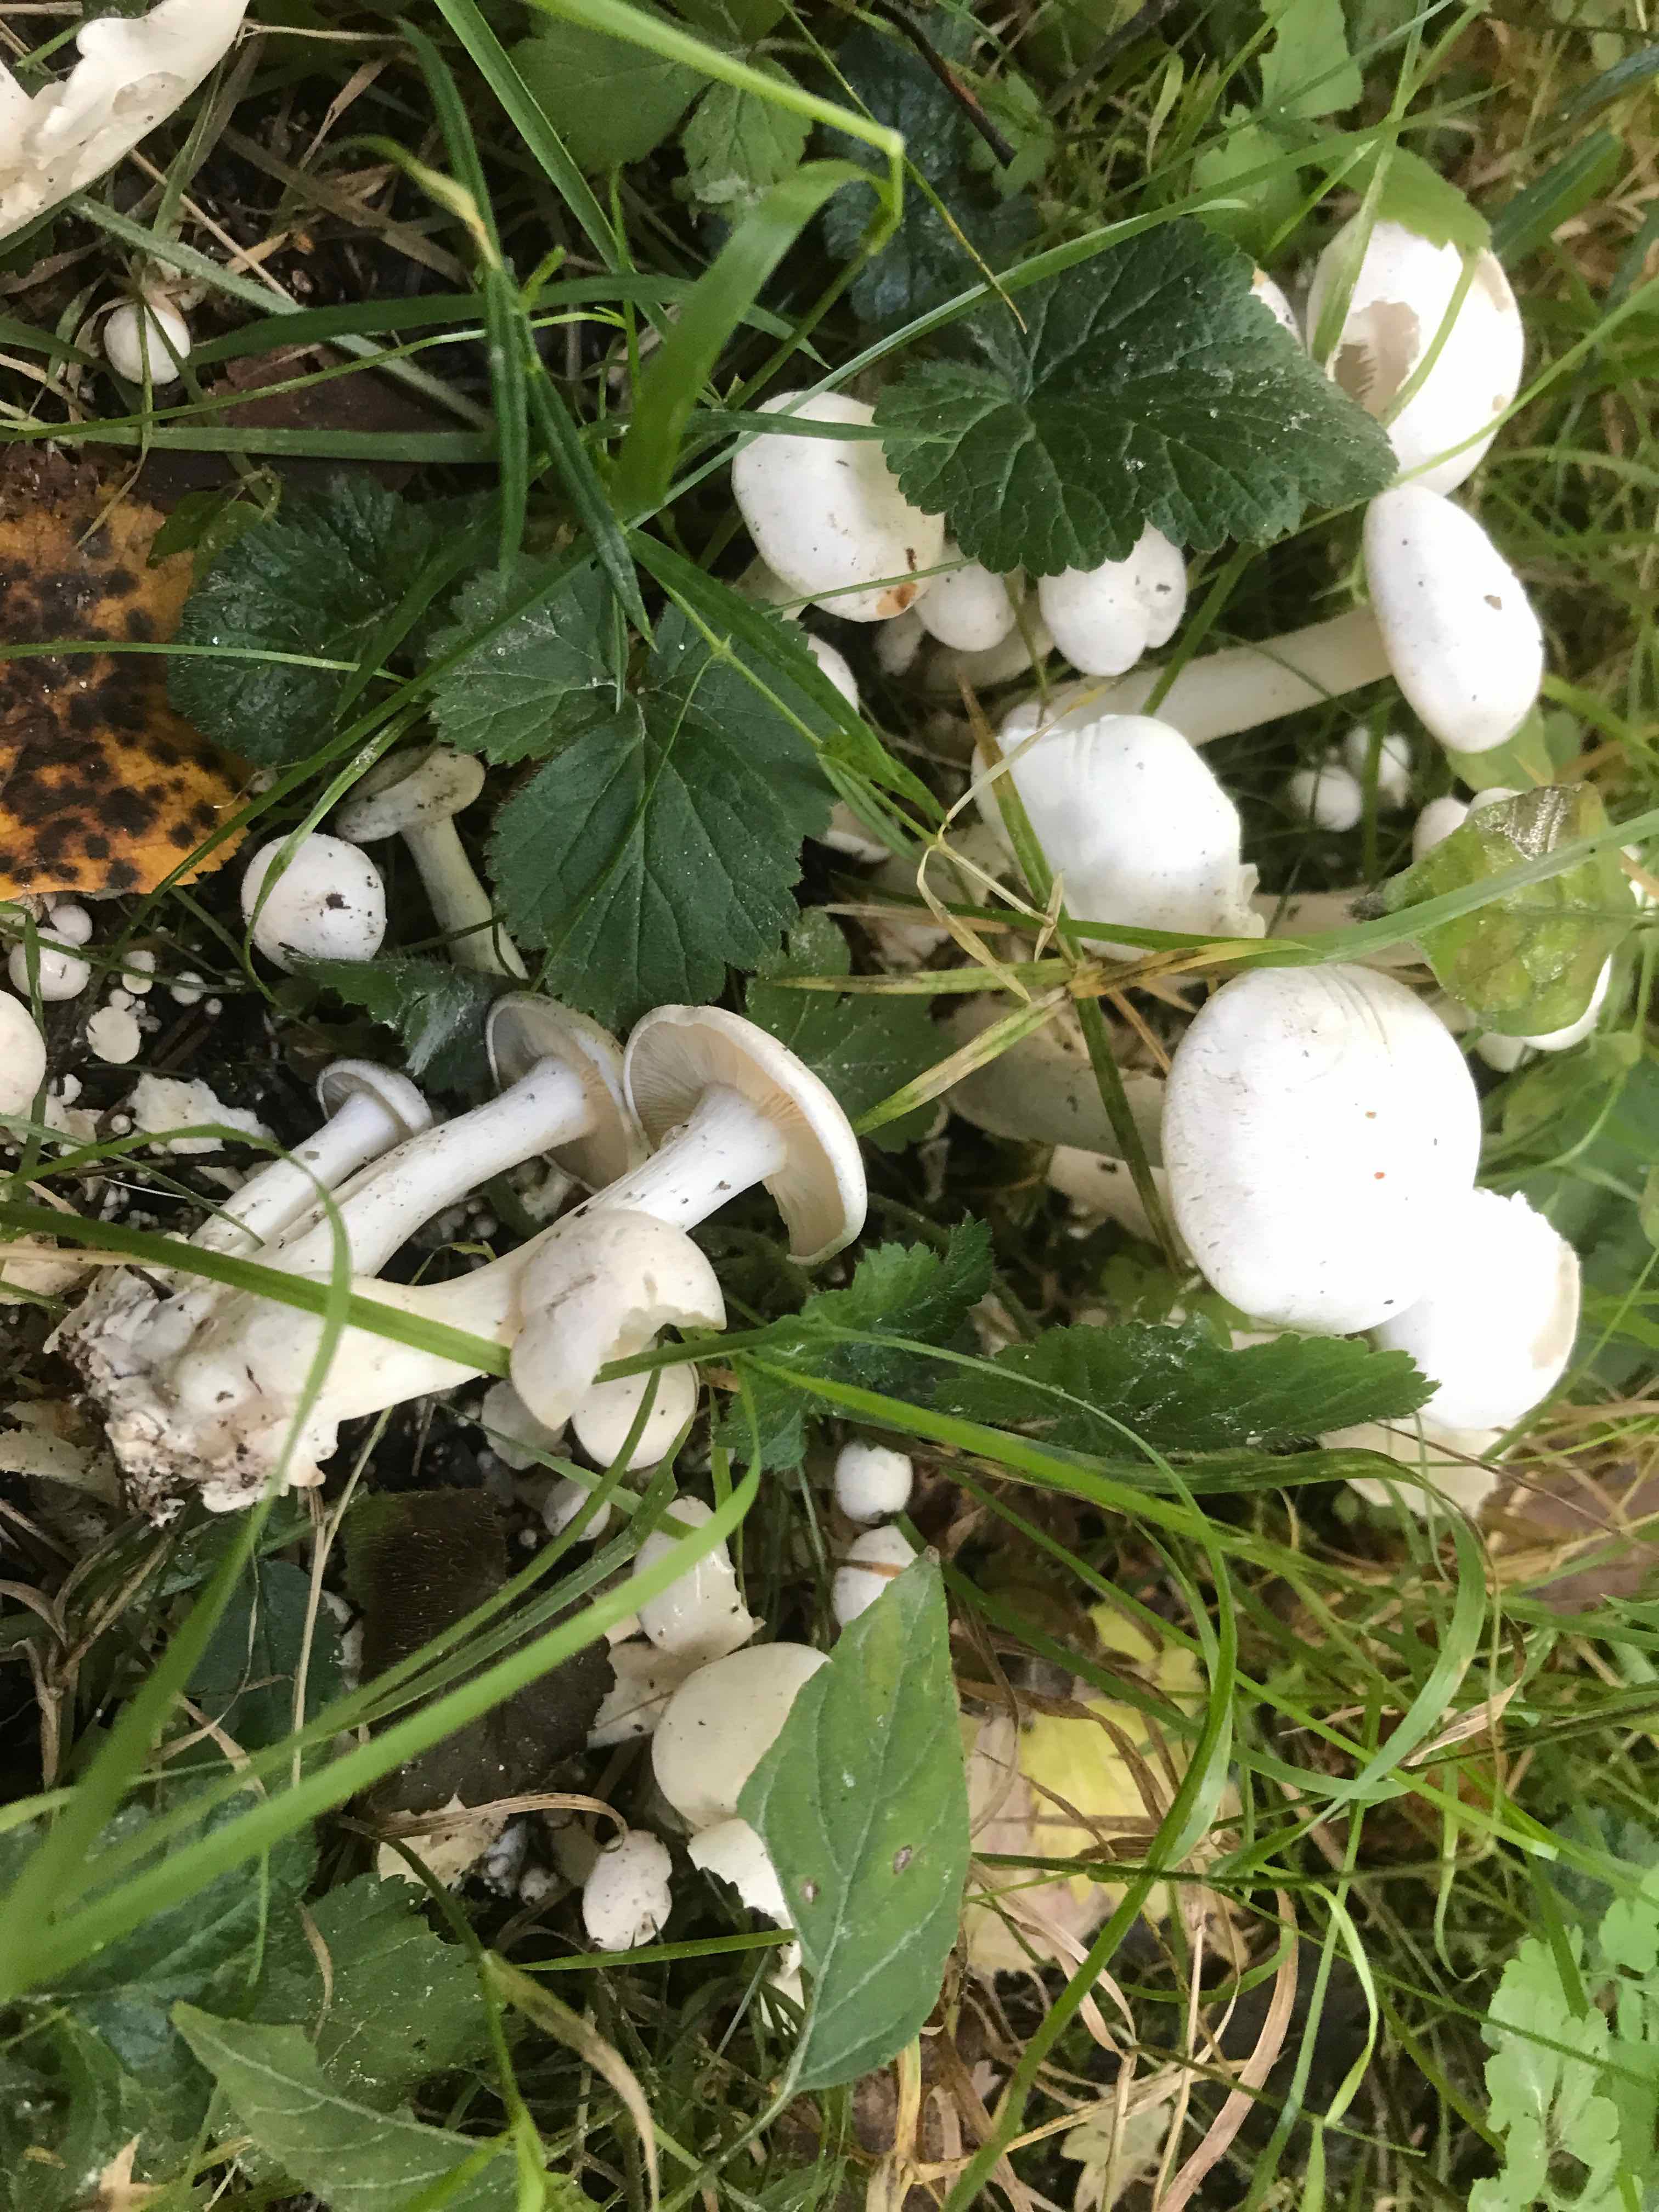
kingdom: Fungi
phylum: Basidiomycota
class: Agaricomycetes
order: Agaricales
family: Tricholomataceae
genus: Leucocybe
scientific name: Leucocybe connata
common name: knippe-tragthat
